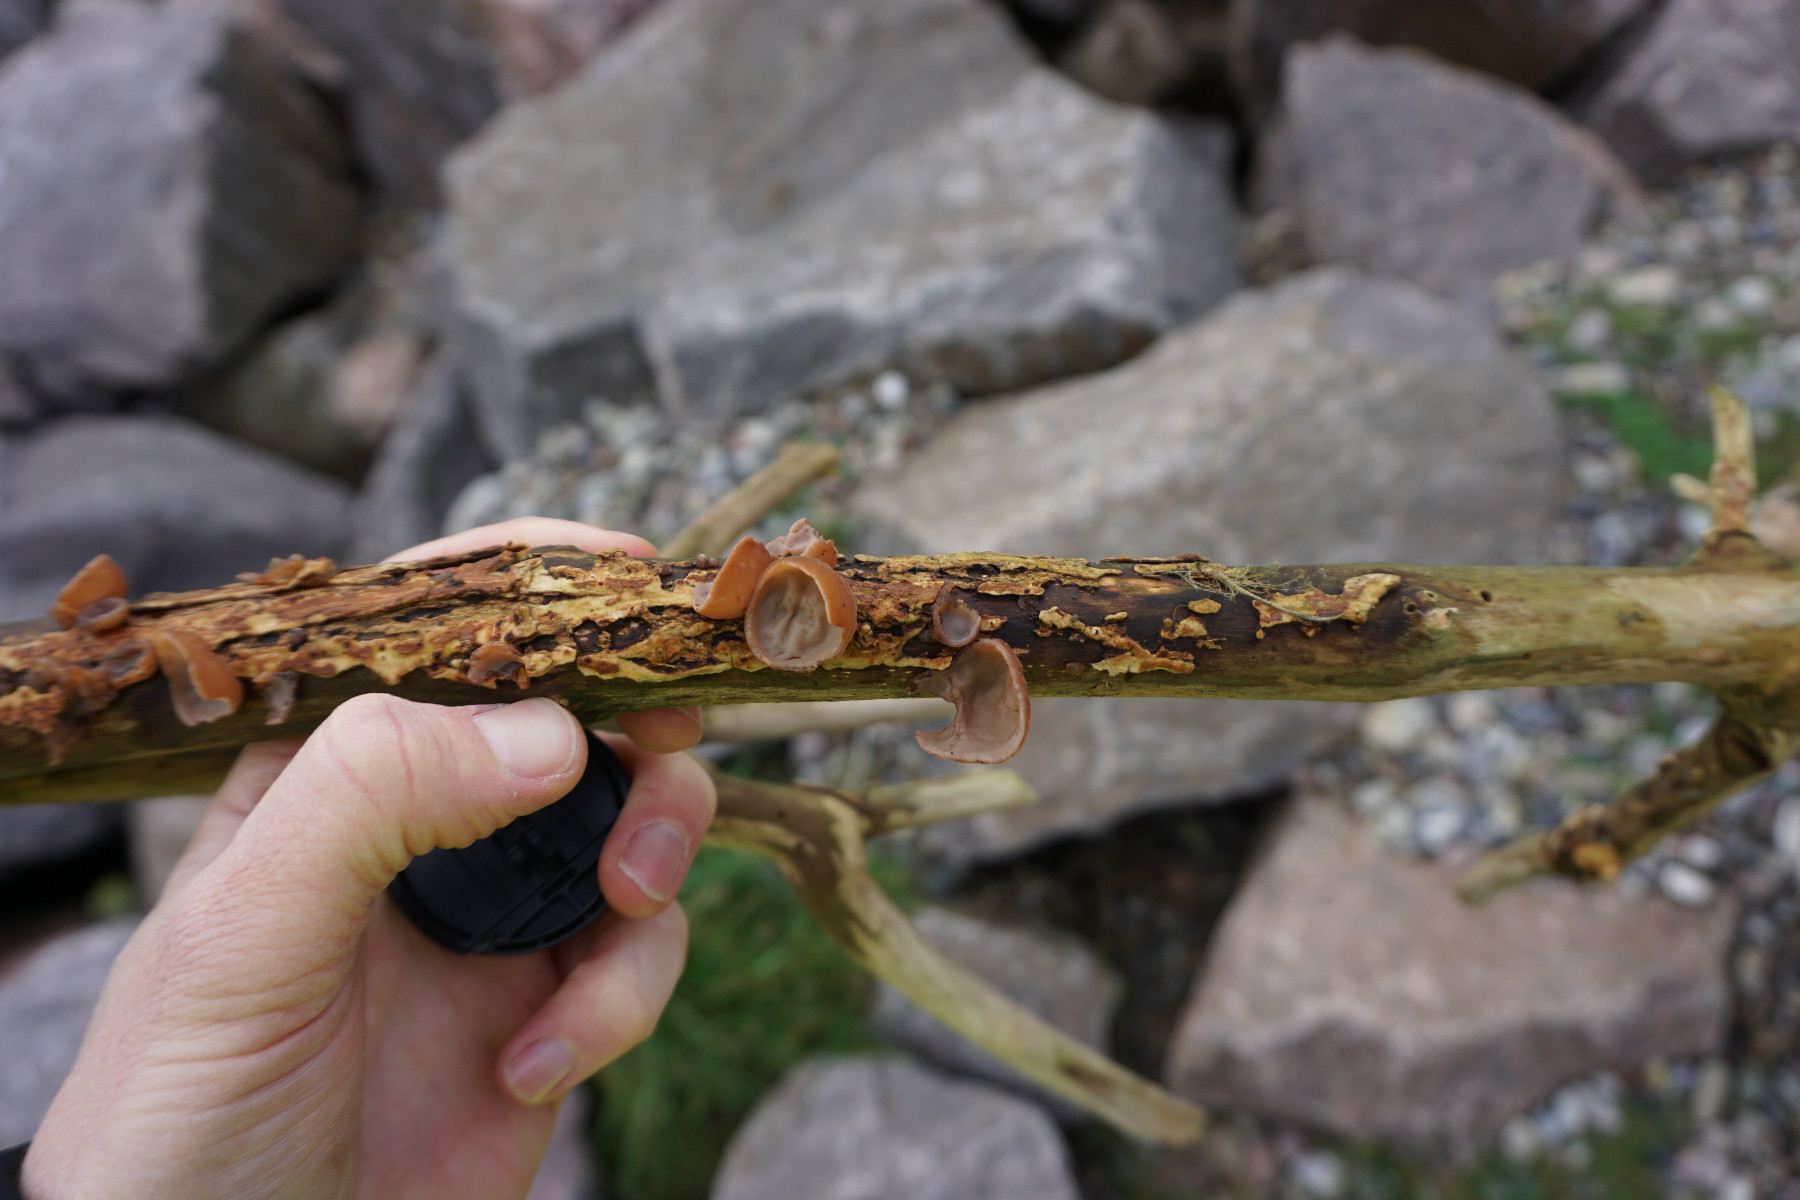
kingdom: Fungi
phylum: Basidiomycota
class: Agaricomycetes
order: Auriculariales
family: Auriculariaceae
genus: Auricularia
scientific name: Auricularia auricula-judae
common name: almindelig judasøre
